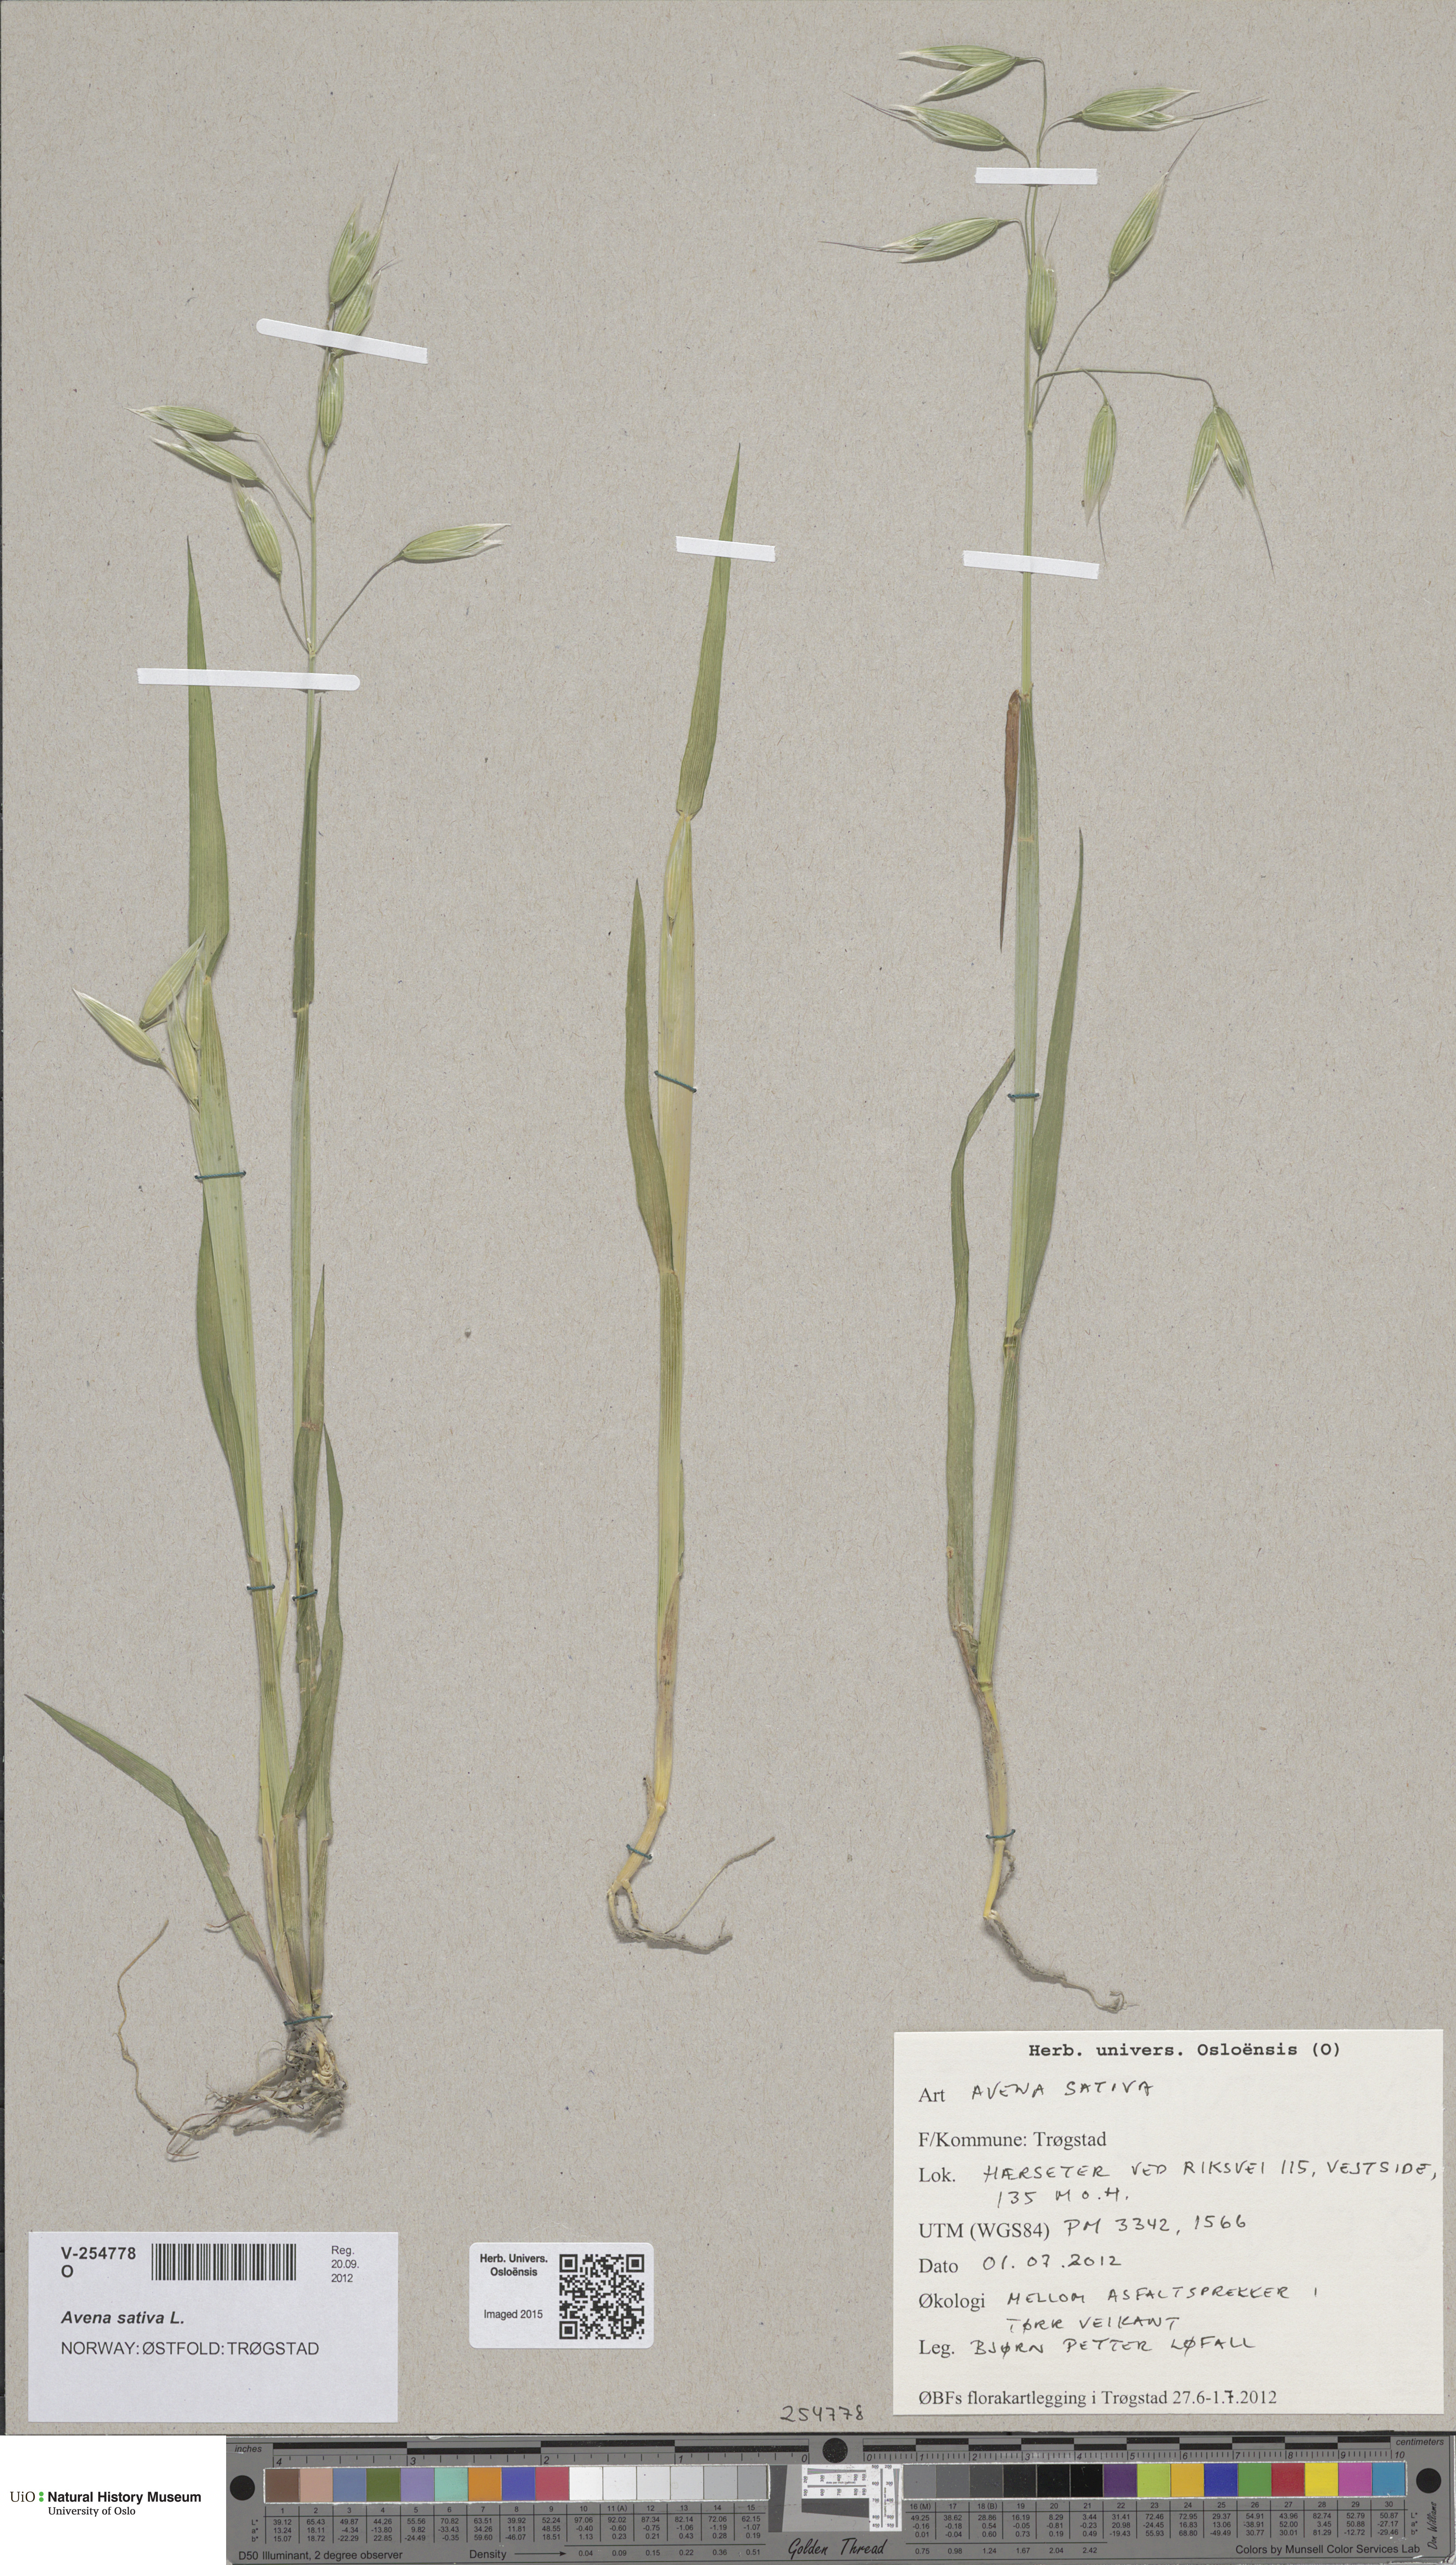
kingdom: Plantae
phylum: Tracheophyta
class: Liliopsida
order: Poales
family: Poaceae
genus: Avena
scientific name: Avena sativa
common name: Oat
